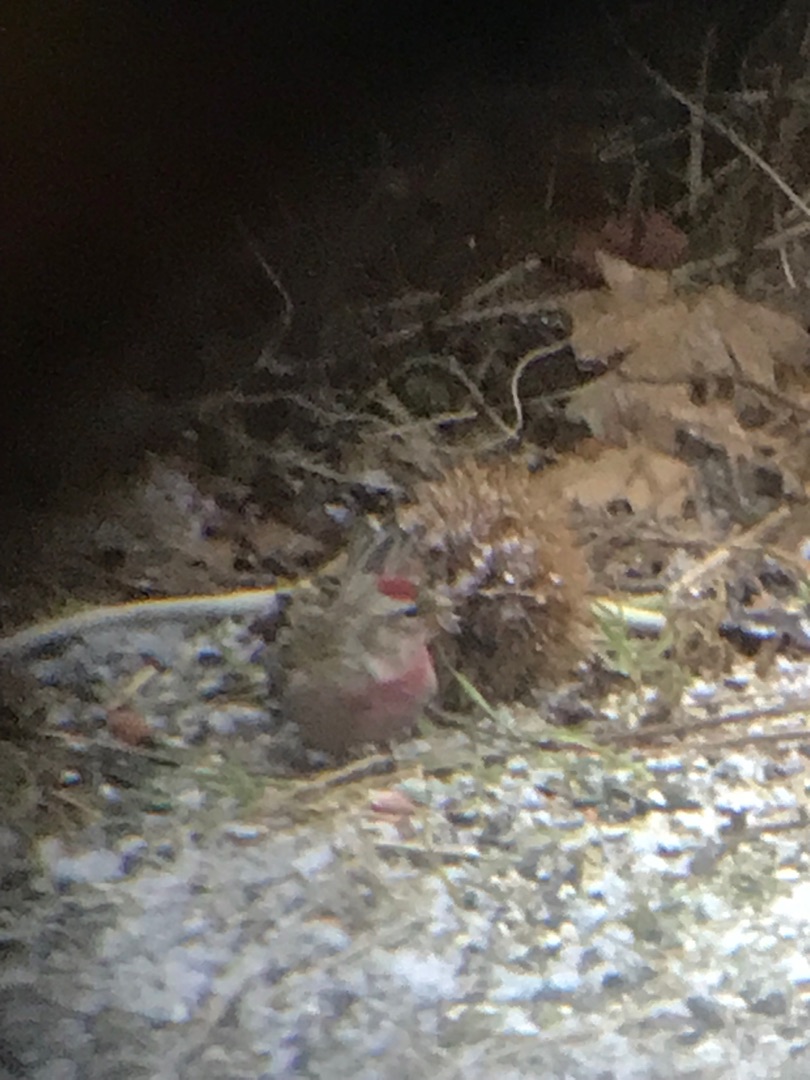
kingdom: Animalia
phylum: Chordata
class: Aves
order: Passeriformes
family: Fringillidae
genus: Acanthis
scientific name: Acanthis flammea
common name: Nordlig gråsisken
